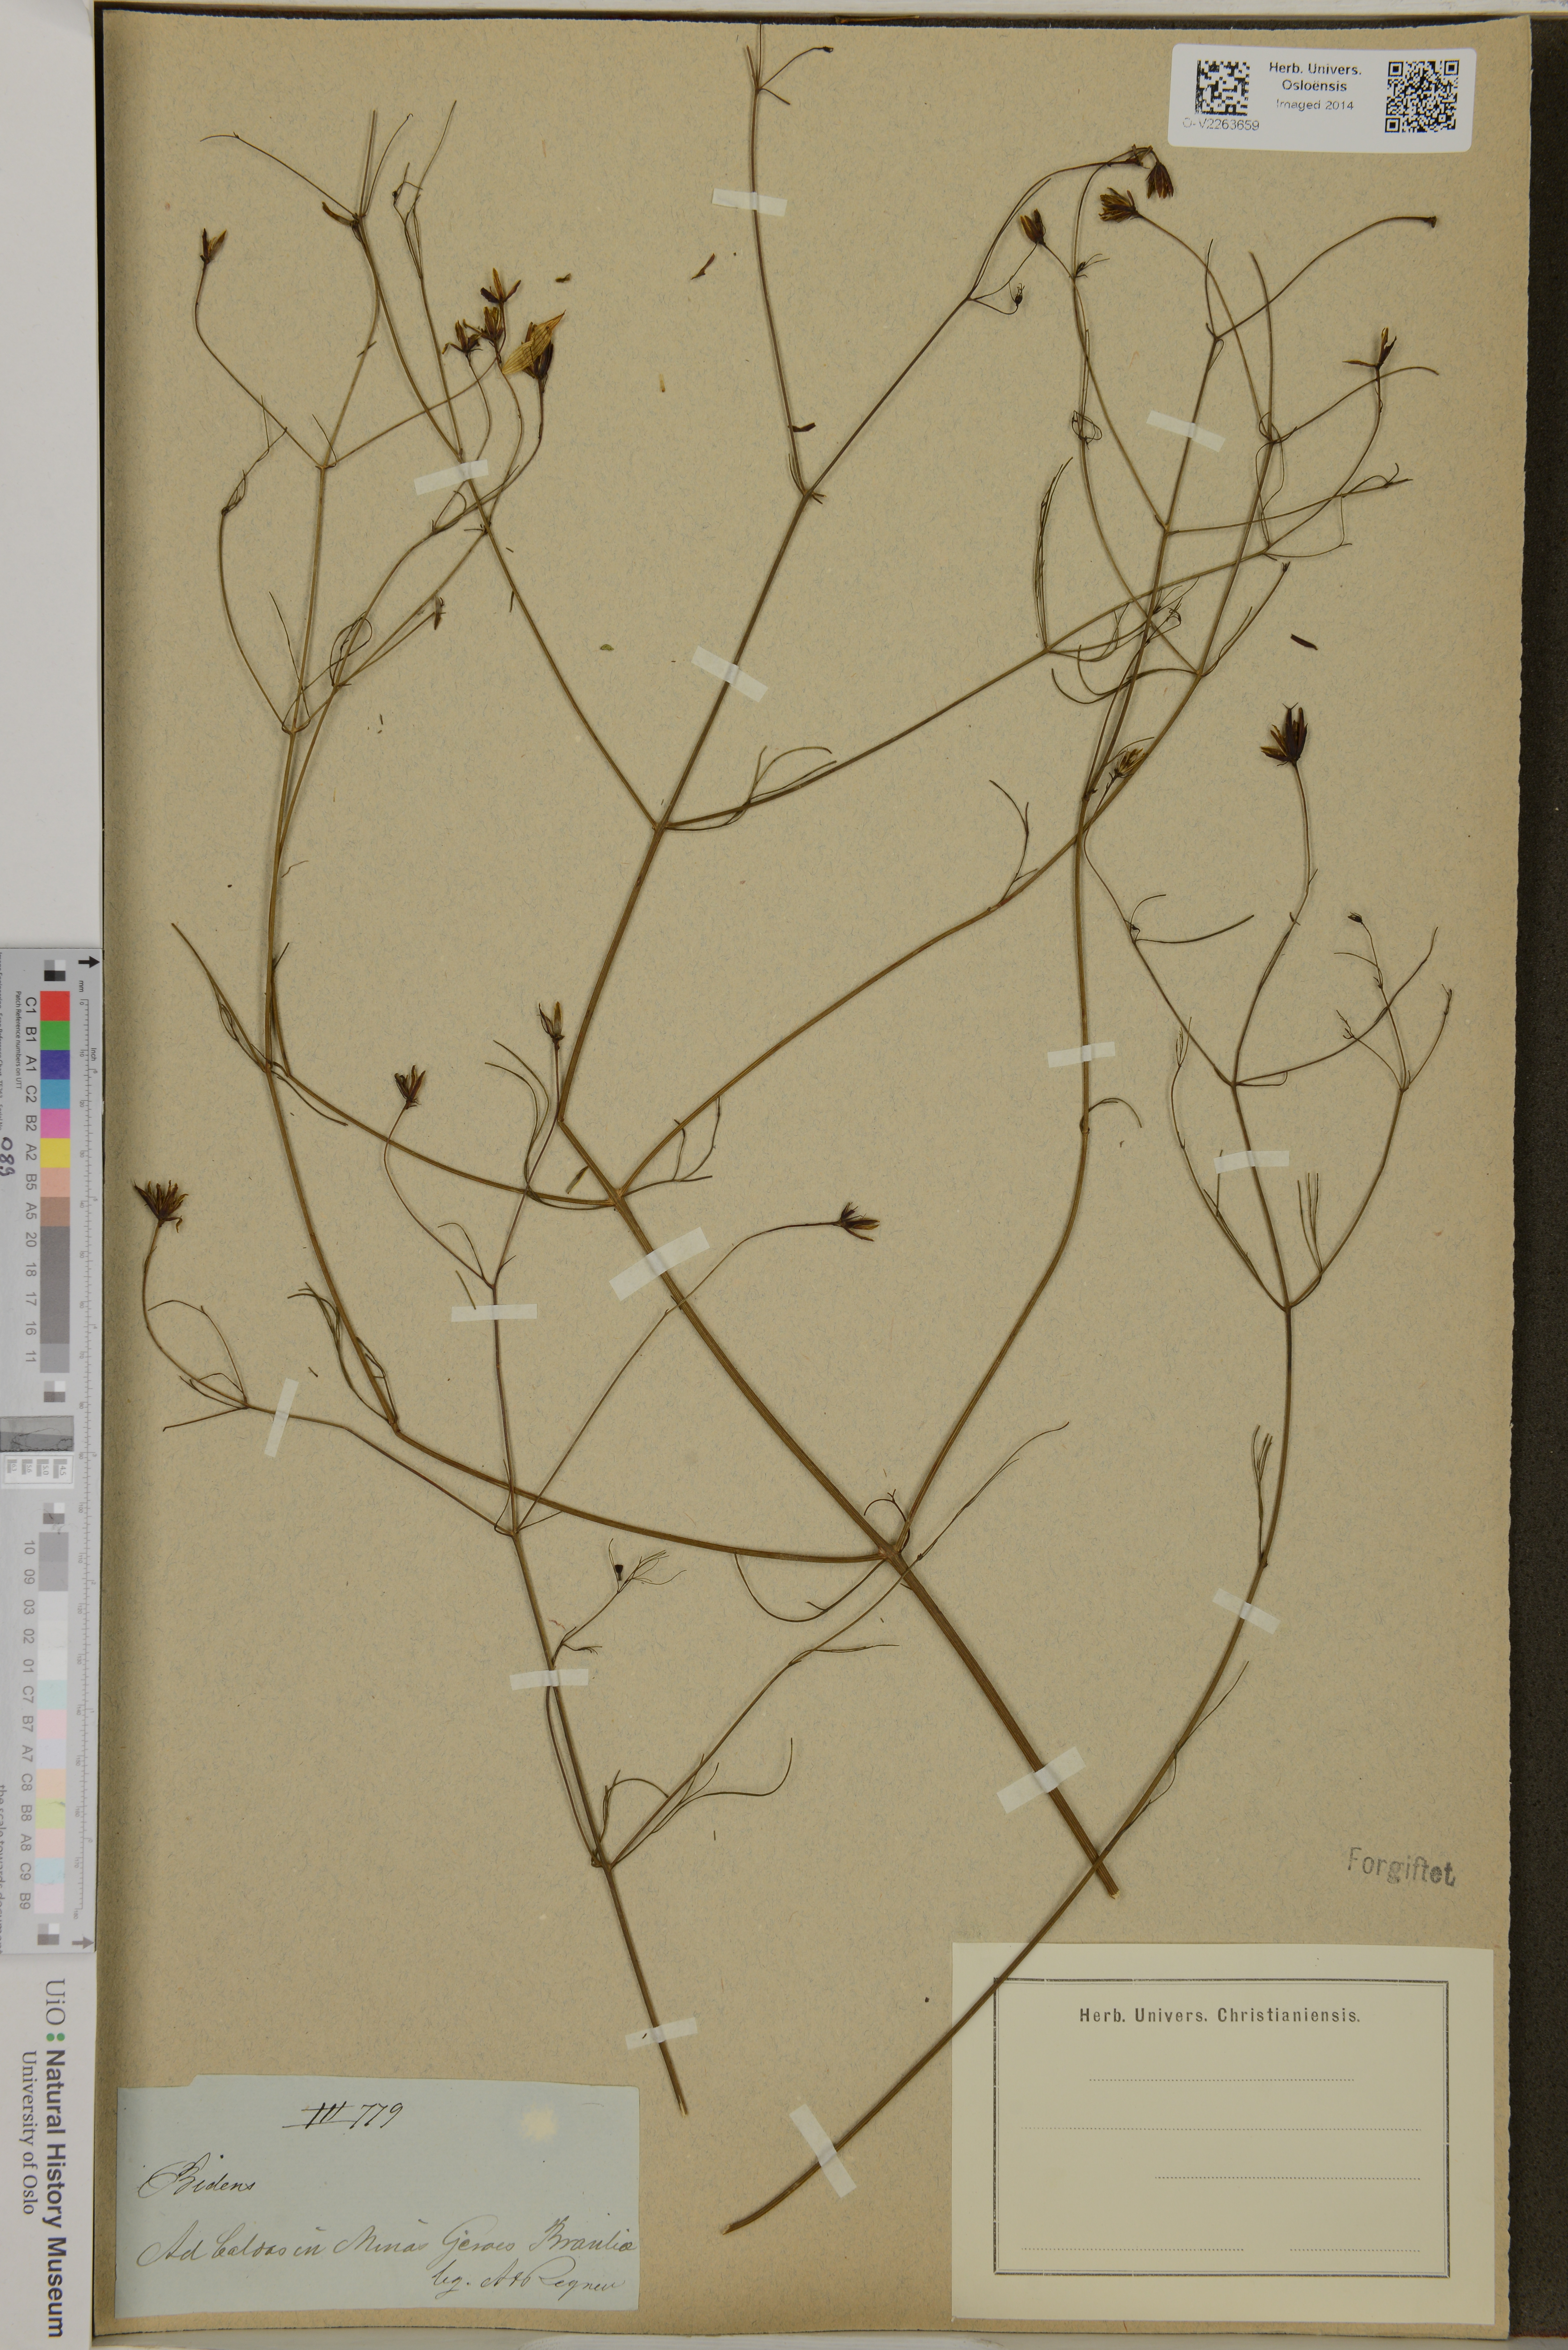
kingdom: Plantae
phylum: Tracheophyta
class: Magnoliopsida
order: Asterales
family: Asteraceae
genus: Bidens
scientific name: Bidens
